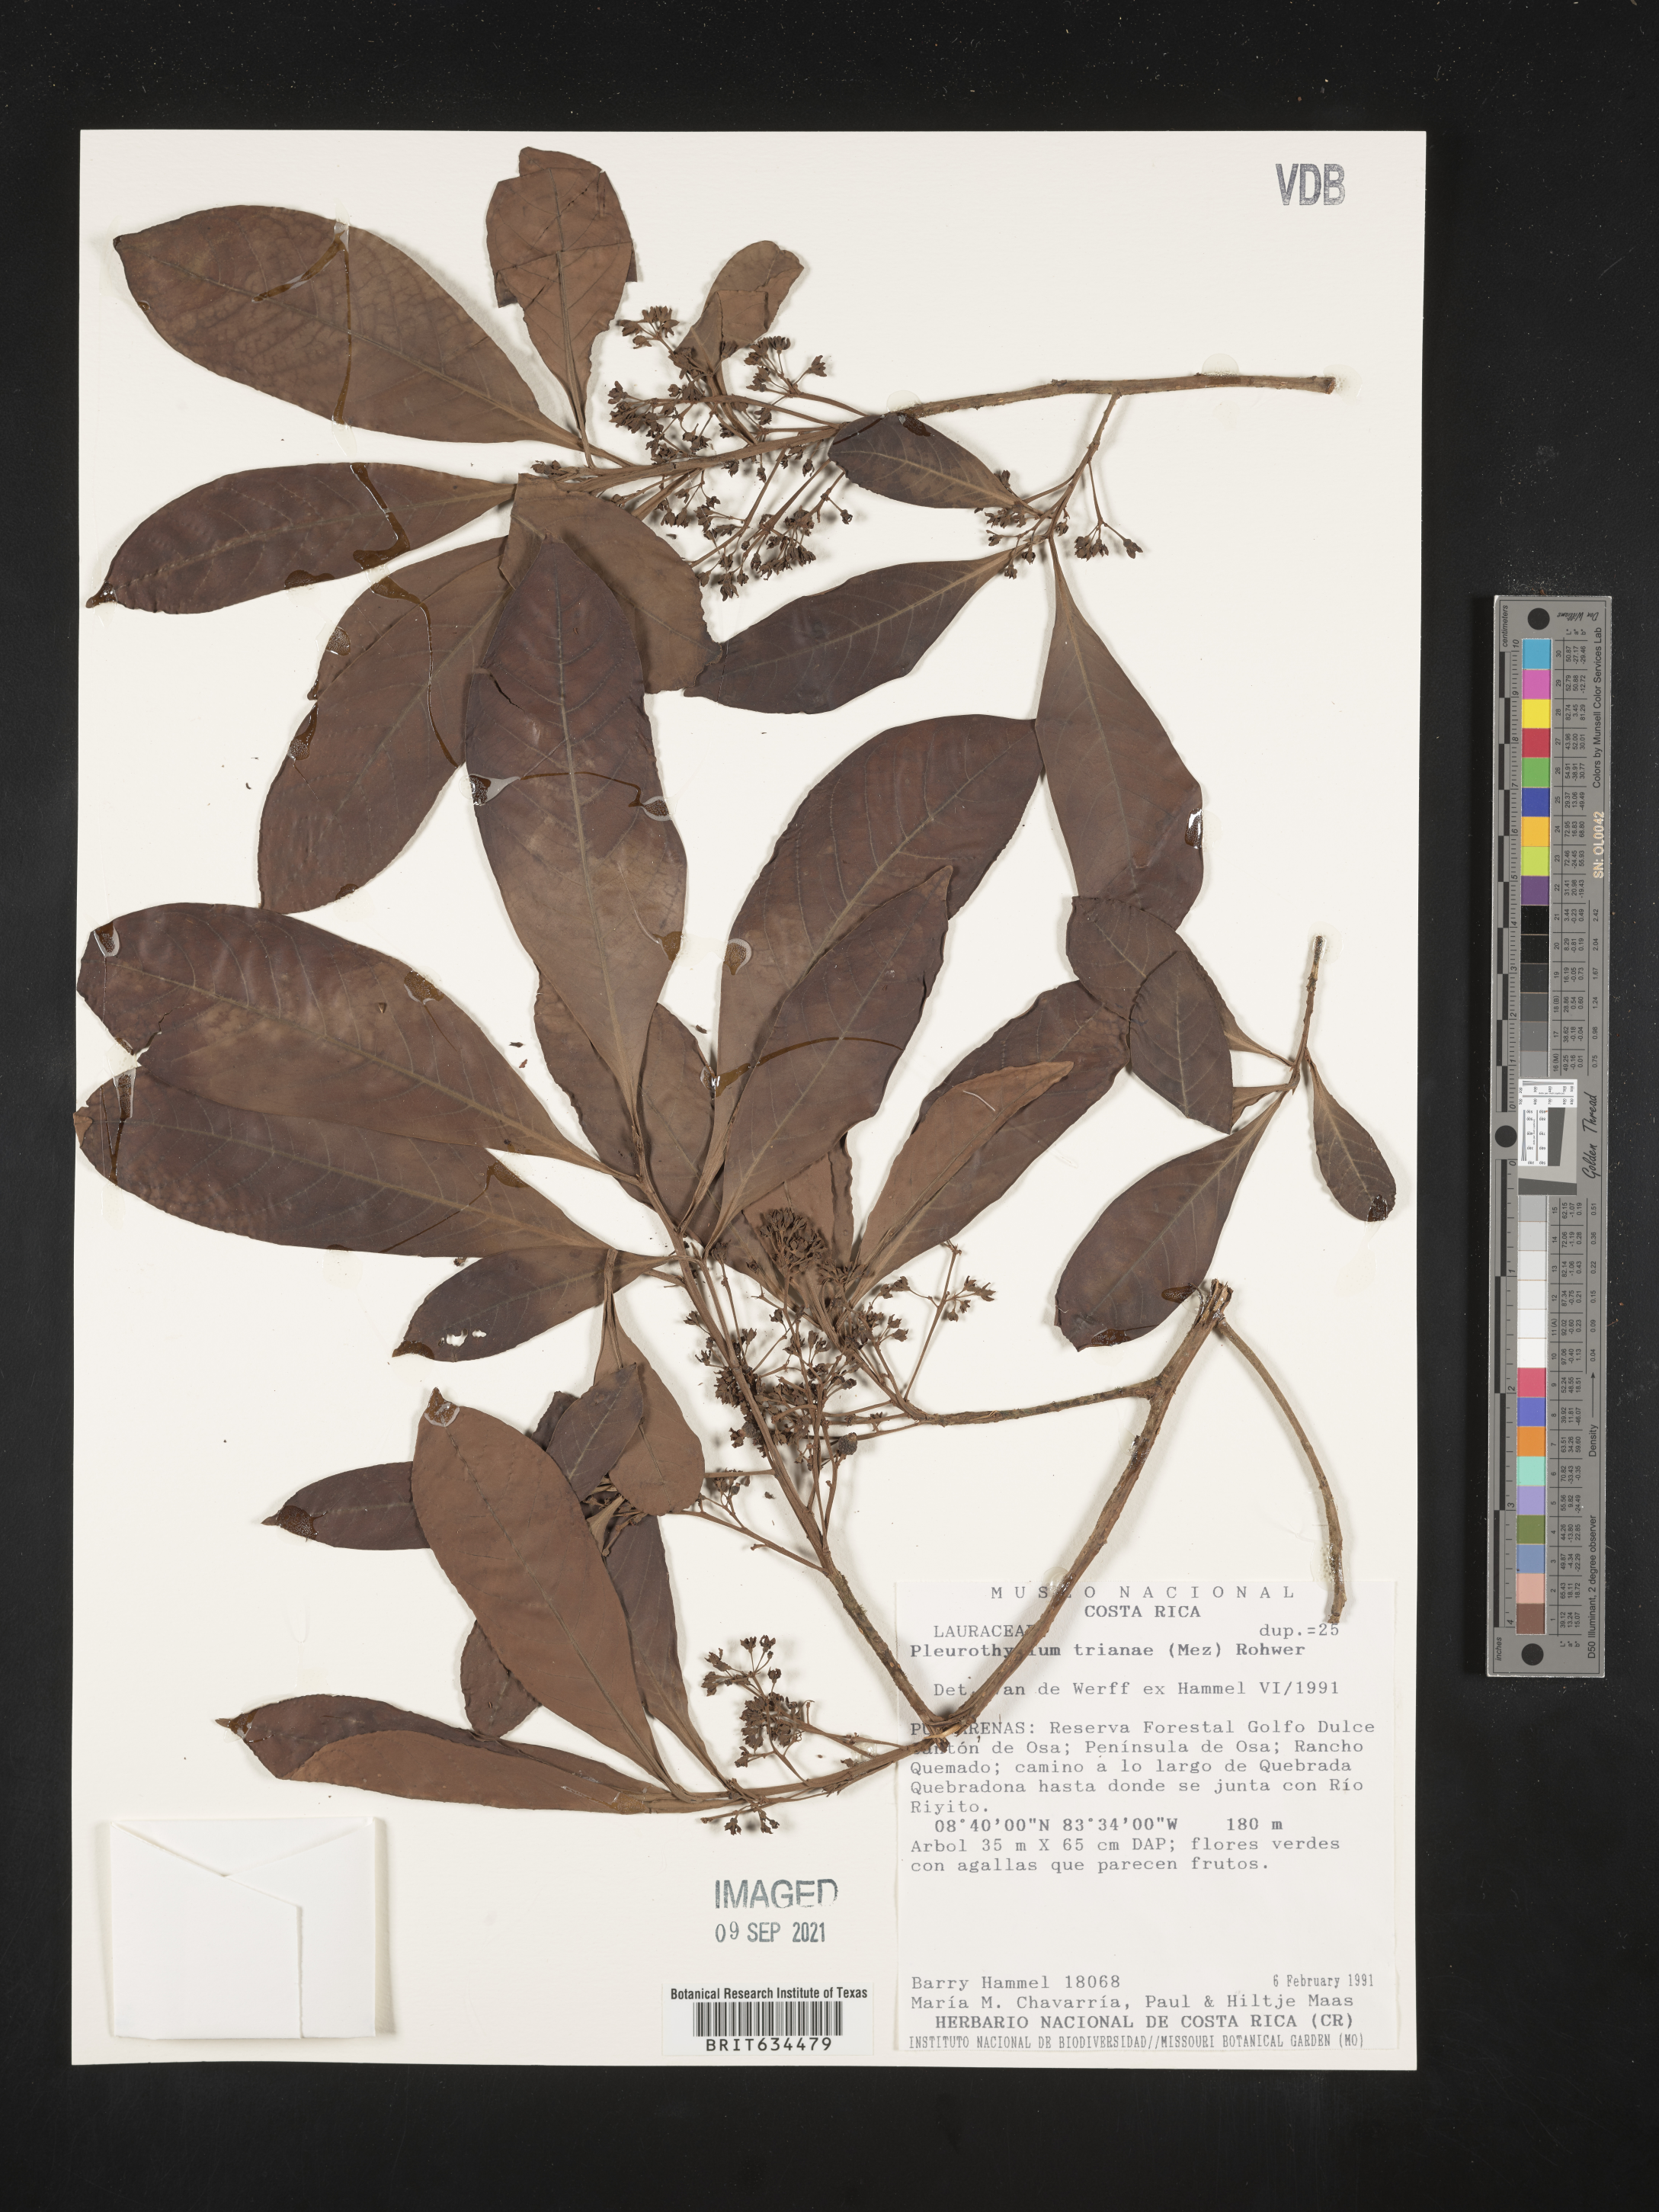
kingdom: Plantae
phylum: Tracheophyta
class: Magnoliopsida
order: Laurales
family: Lauraceae
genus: Pleurothyrium
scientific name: Pleurothyrium
